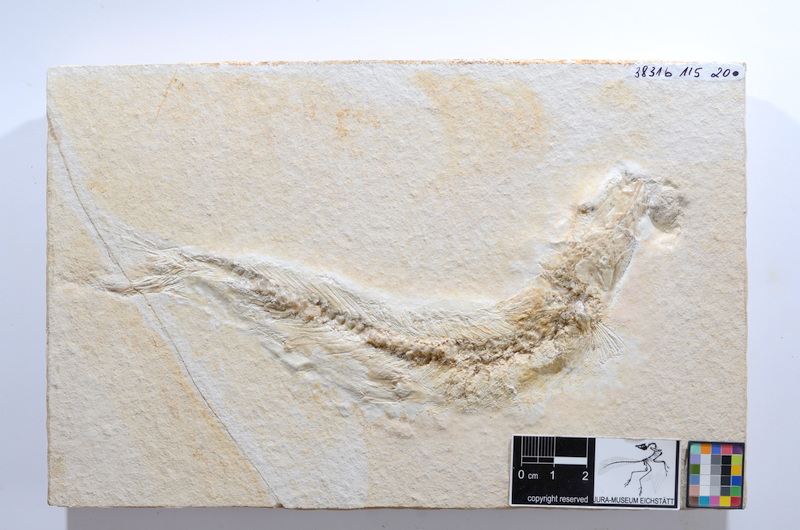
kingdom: Animalia
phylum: Chordata
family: Ascalaboidae
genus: Tharsis
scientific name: Tharsis dubius
